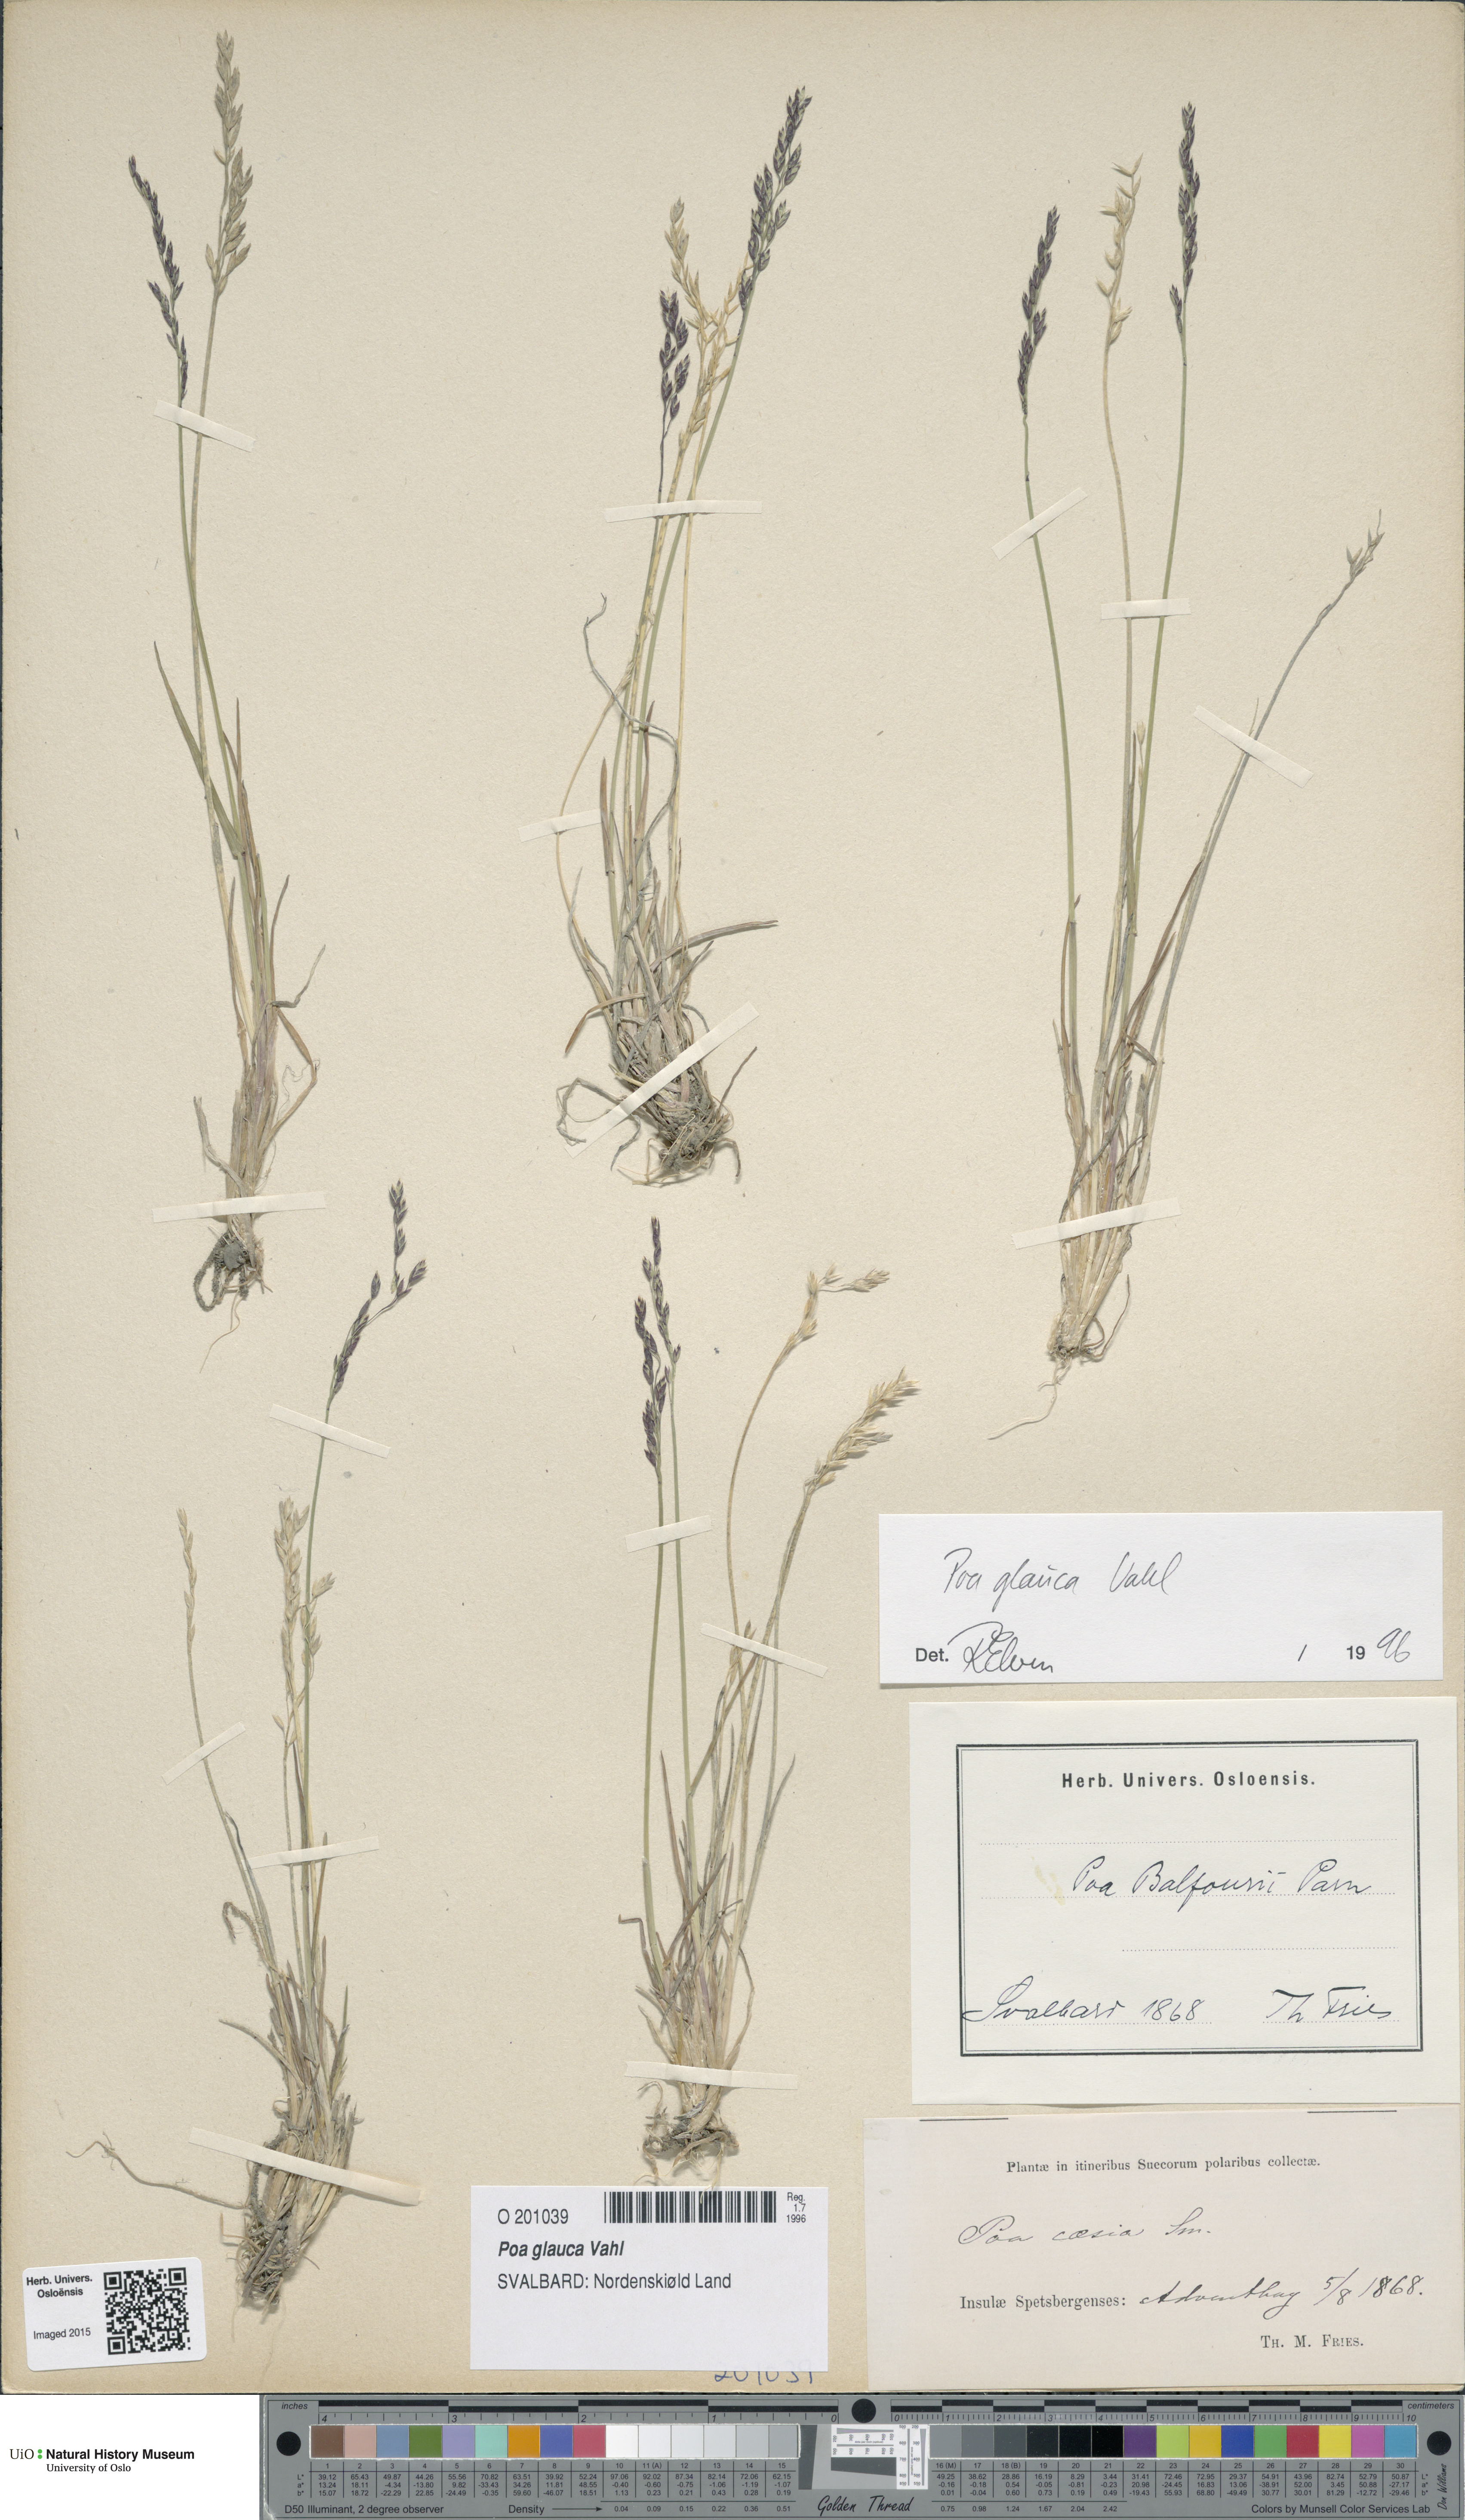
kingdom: Plantae
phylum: Tracheophyta
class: Liliopsida
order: Poales
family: Poaceae
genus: Poa
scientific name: Poa glauca
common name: Glaucous bluegrass
